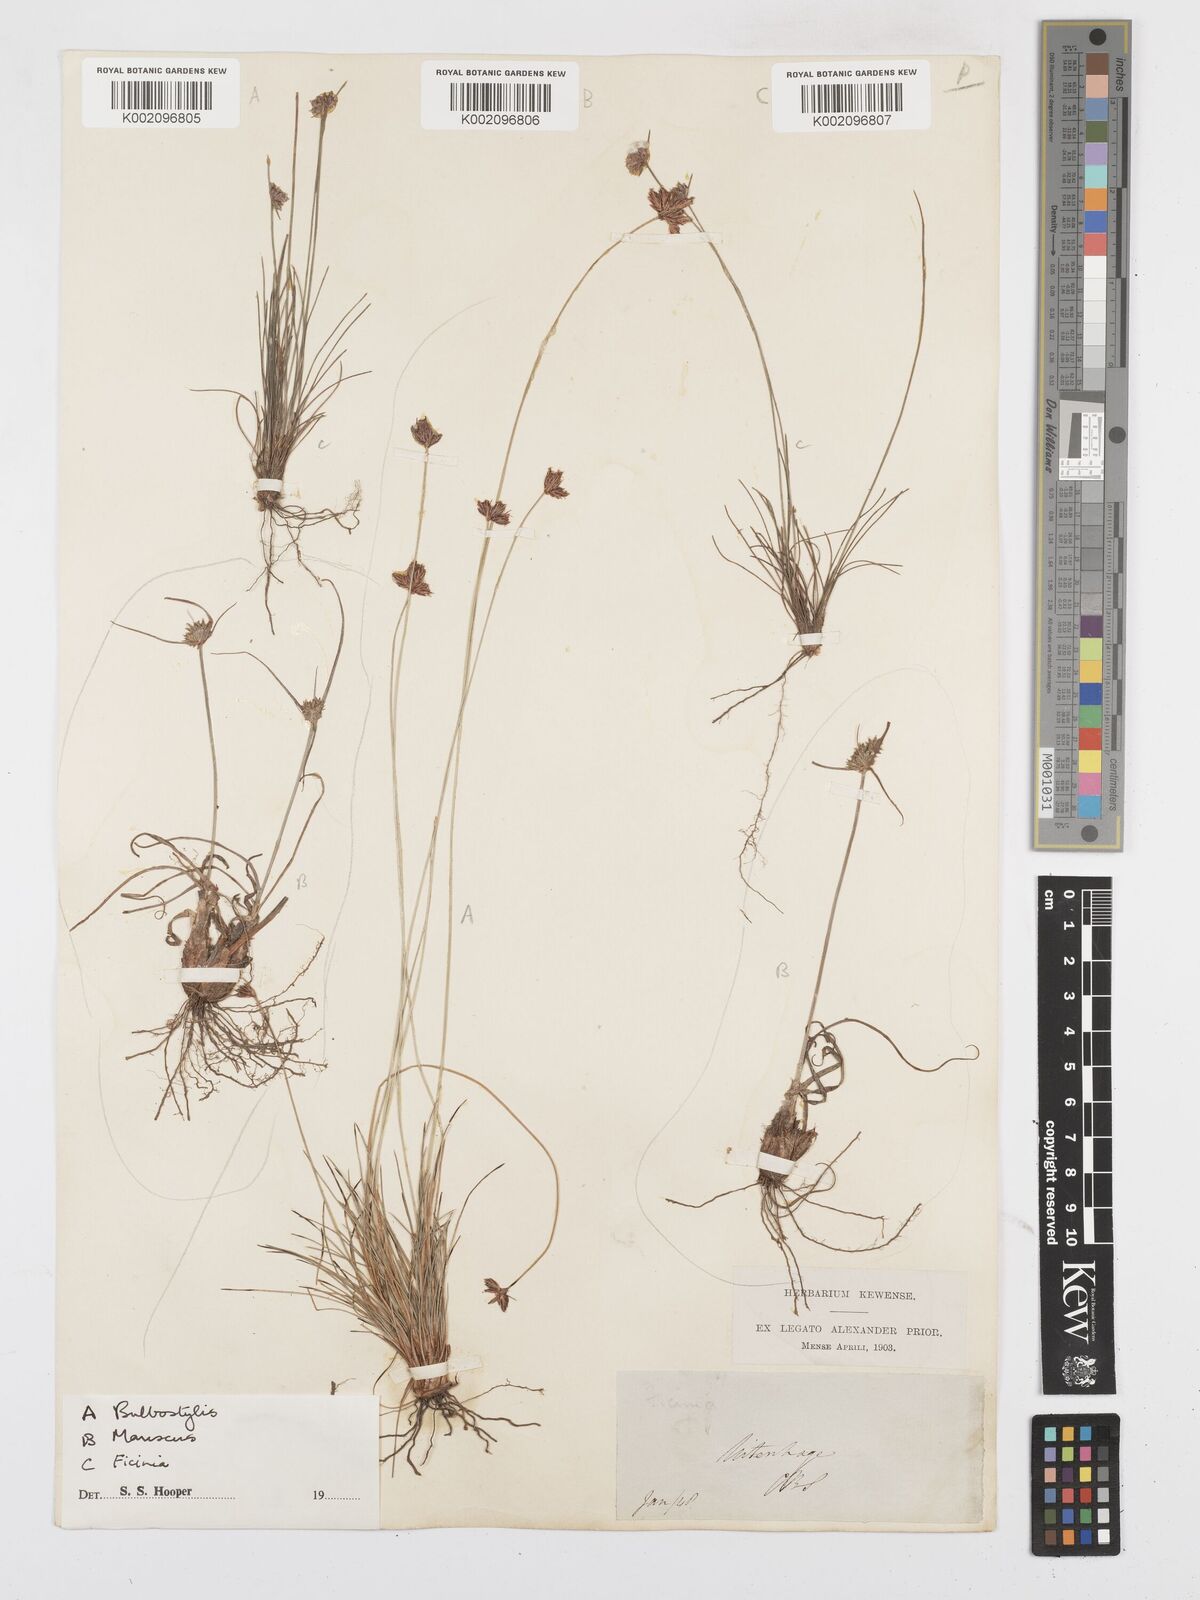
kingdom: Plantae
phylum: Tracheophyta
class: Liliopsida
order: Poales
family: Cyperaceae
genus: Bulbostylis
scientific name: Bulbostylis
